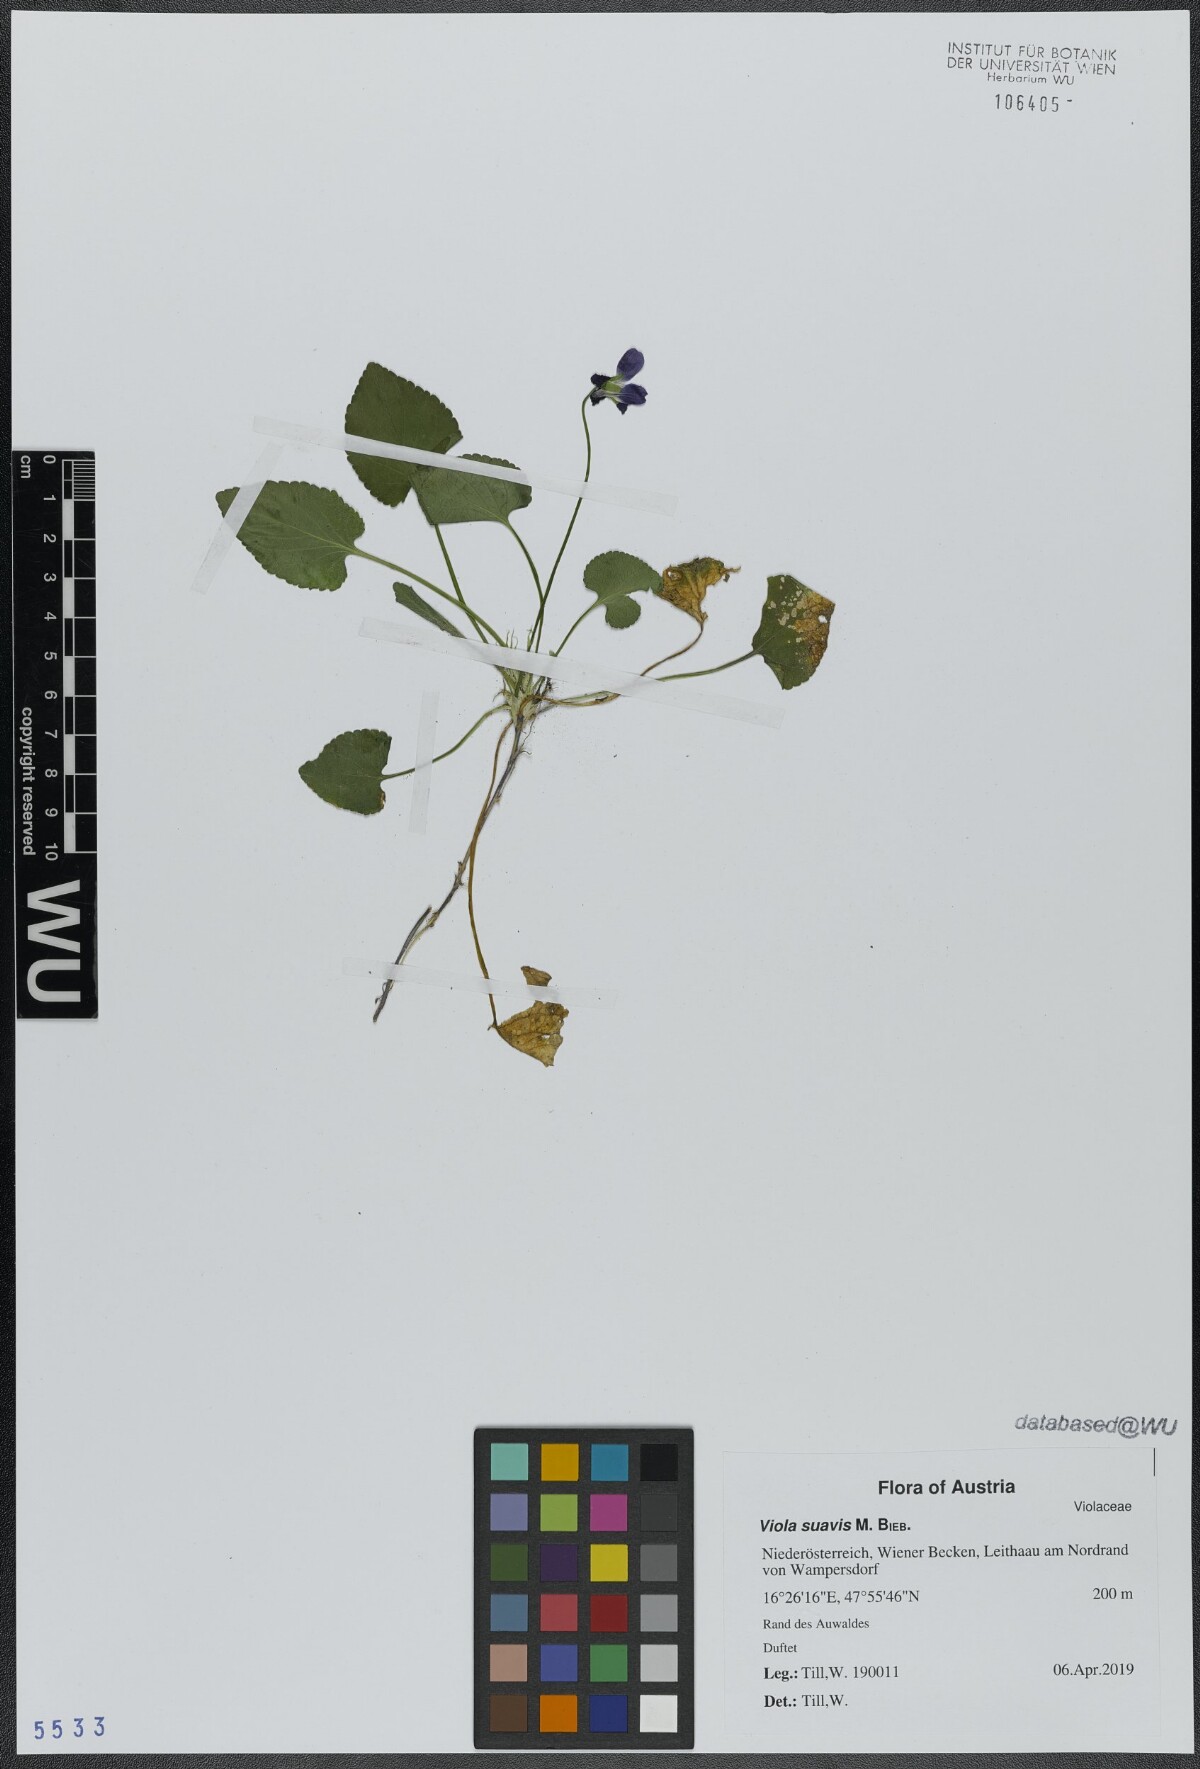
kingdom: Plantae
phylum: Tracheophyta
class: Magnoliopsida
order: Malpighiales
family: Violaceae
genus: Viola
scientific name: Viola suavis
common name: Russian violet
